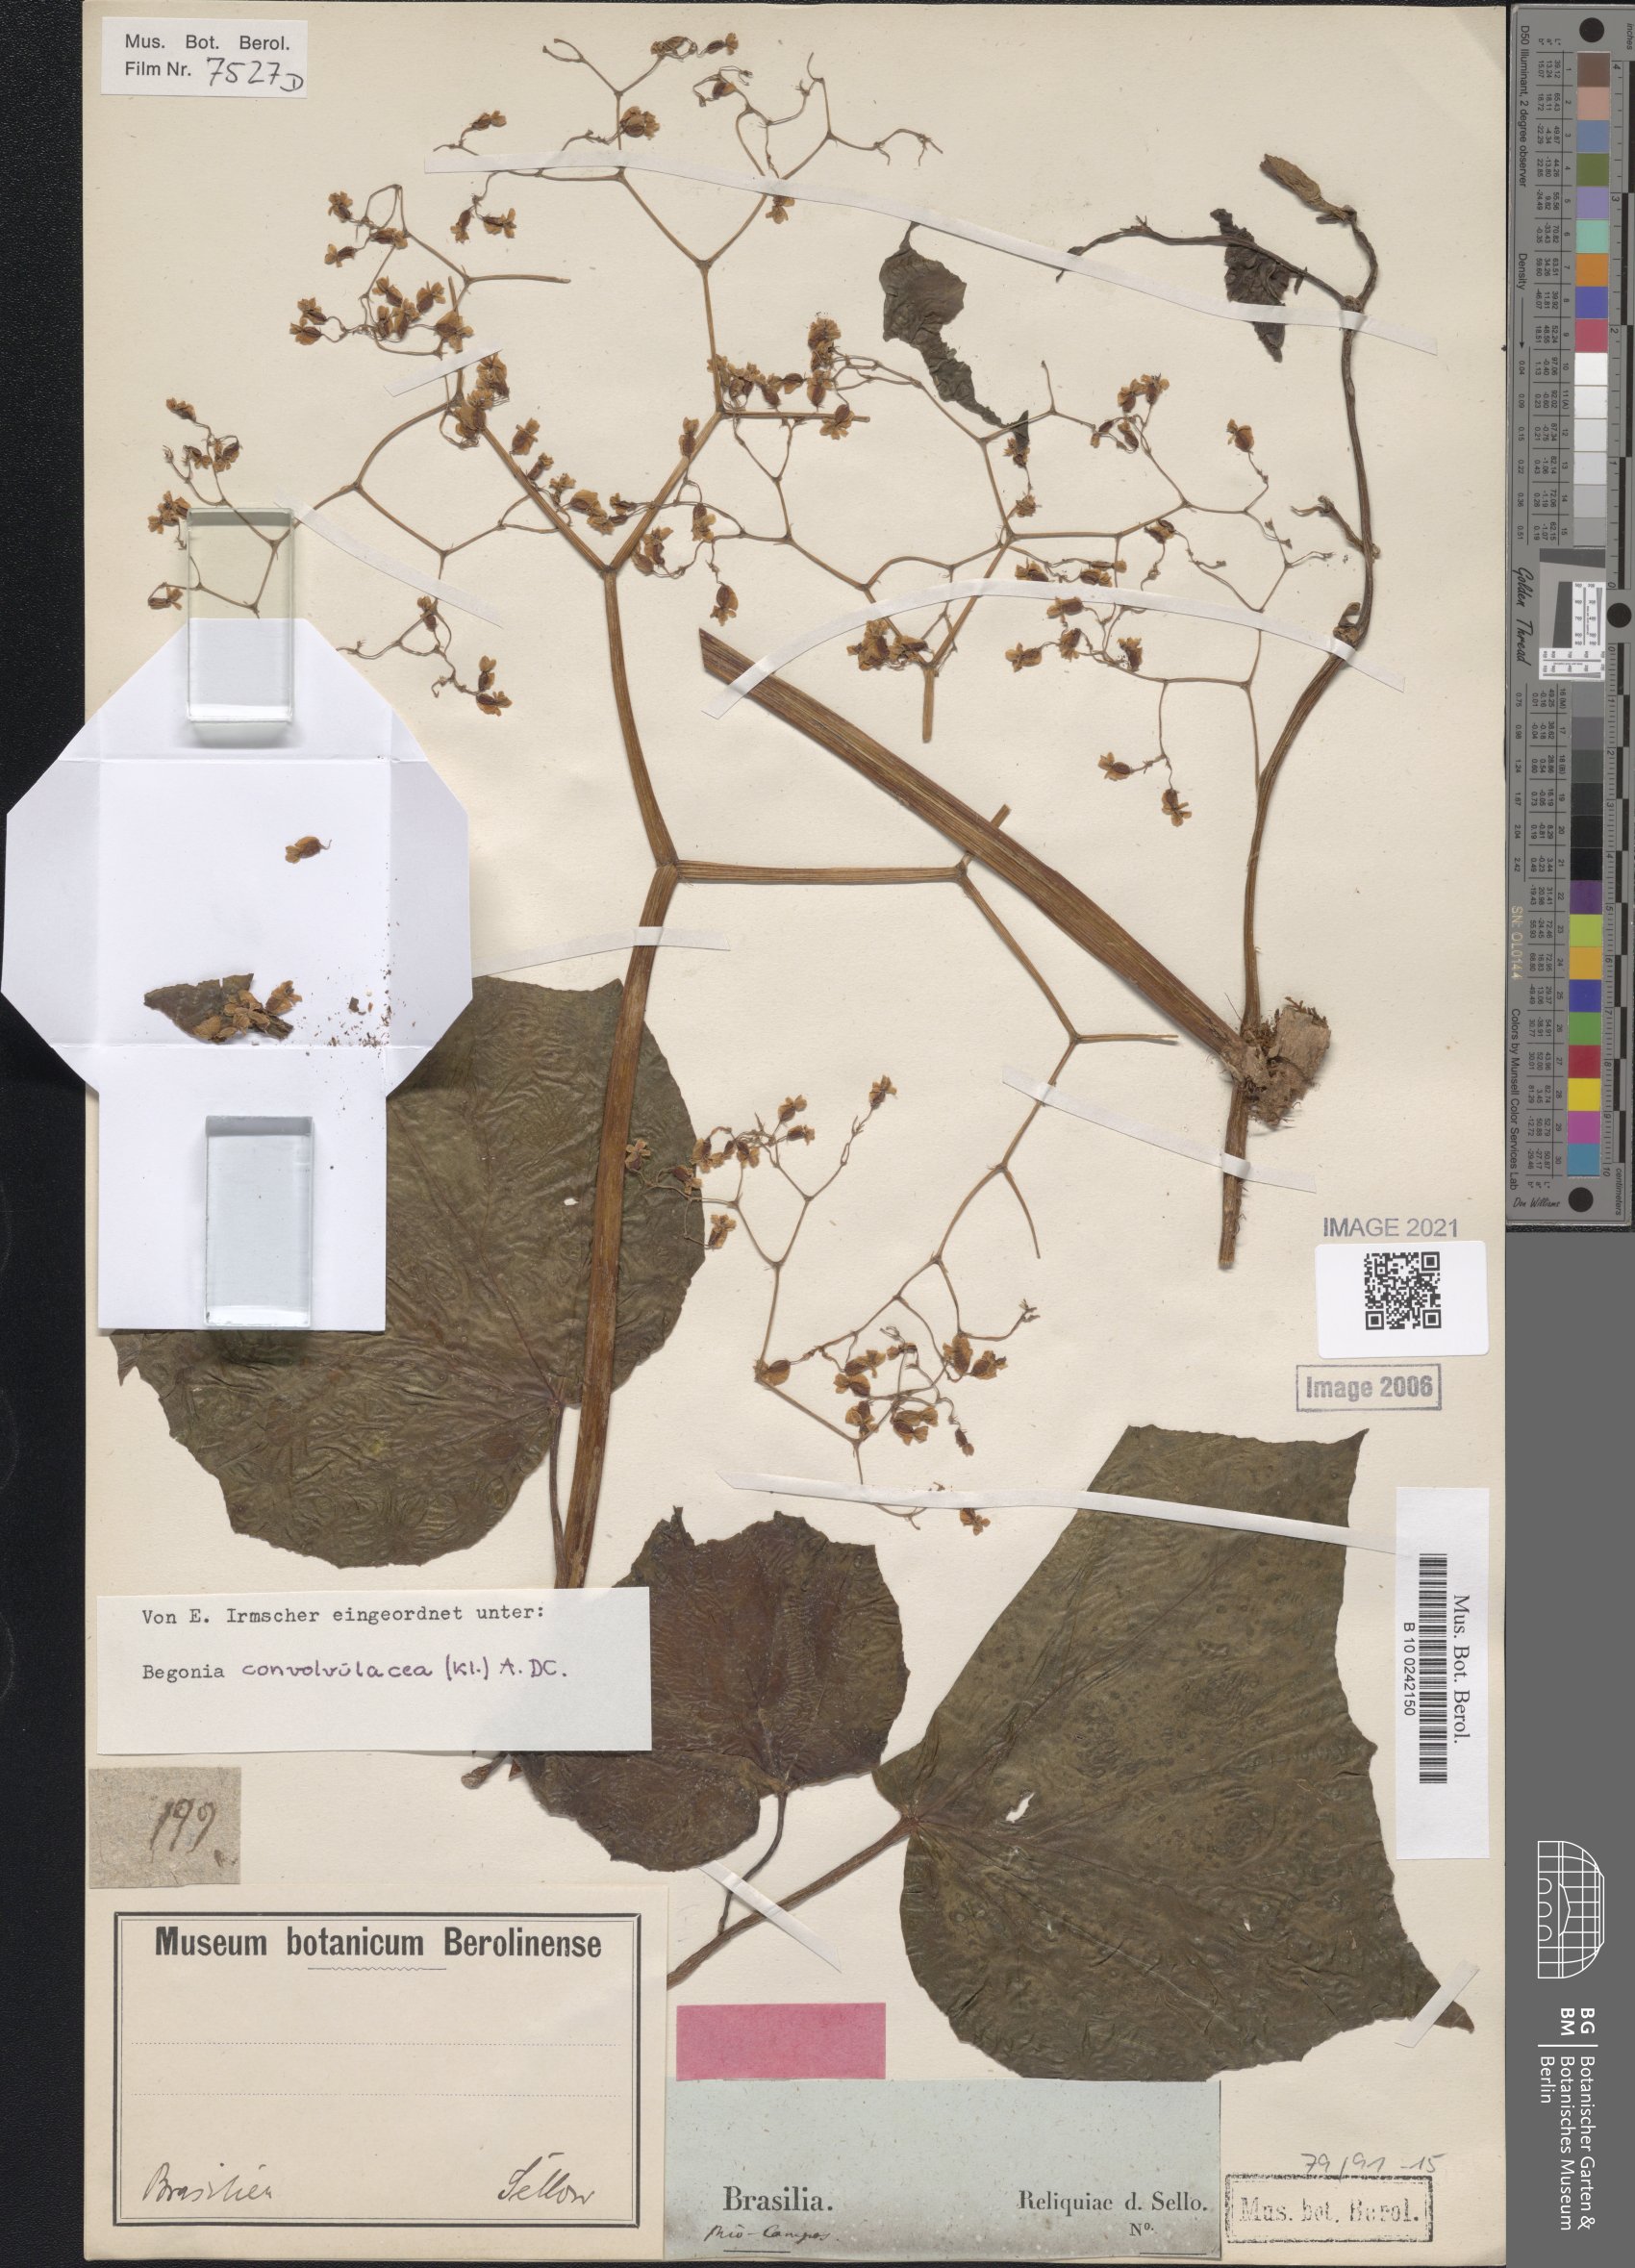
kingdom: Plantae
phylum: Tracheophyta
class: Magnoliopsida
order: Cucurbitales
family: Begoniaceae
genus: Begonia
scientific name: Begonia convolvulacea
